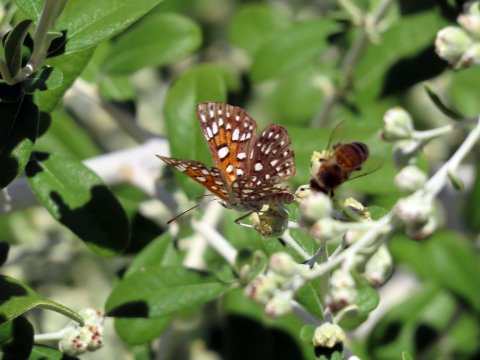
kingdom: Animalia
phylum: Arthropoda
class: Insecta
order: Lepidoptera
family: Riodinidae
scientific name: Riodinidae
